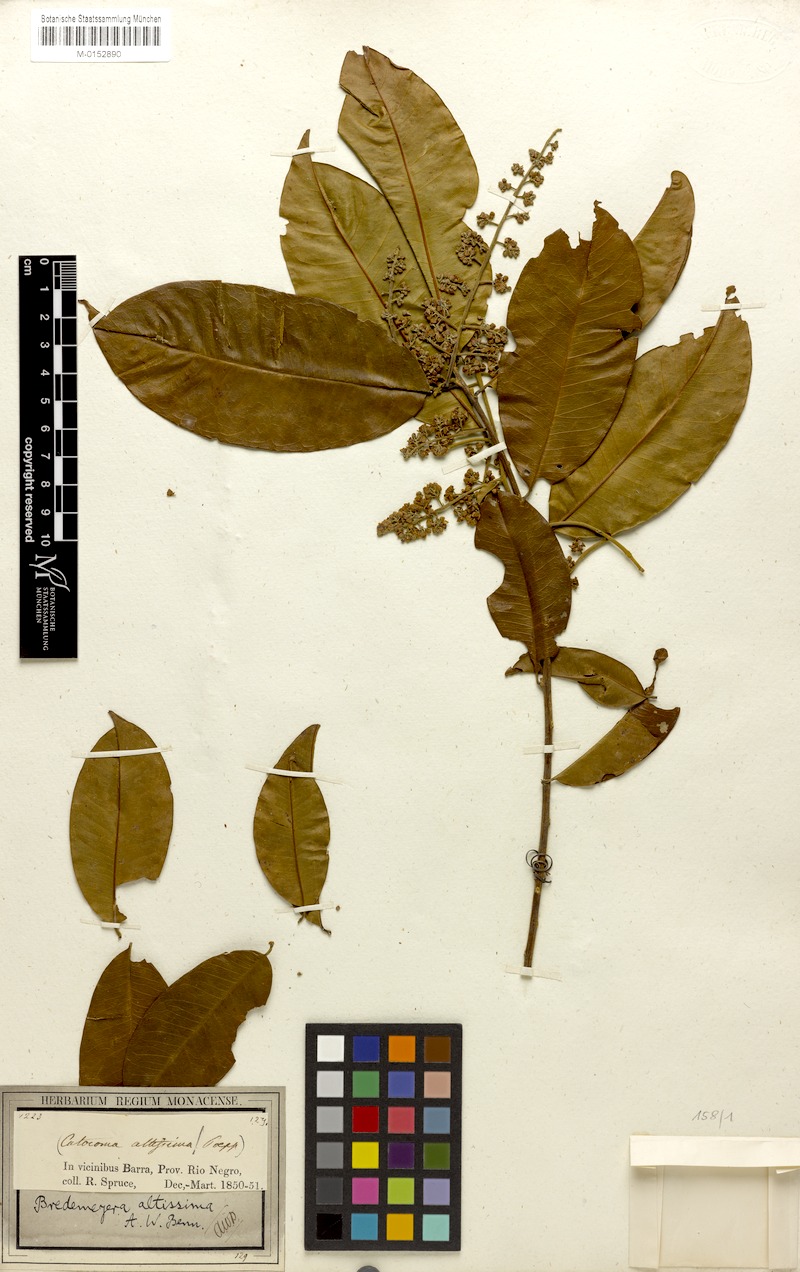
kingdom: Plantae
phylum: Tracheophyta
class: Magnoliopsida
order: Fabales
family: Polygalaceae
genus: Bredemeyera
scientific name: Bredemeyera divaricata
